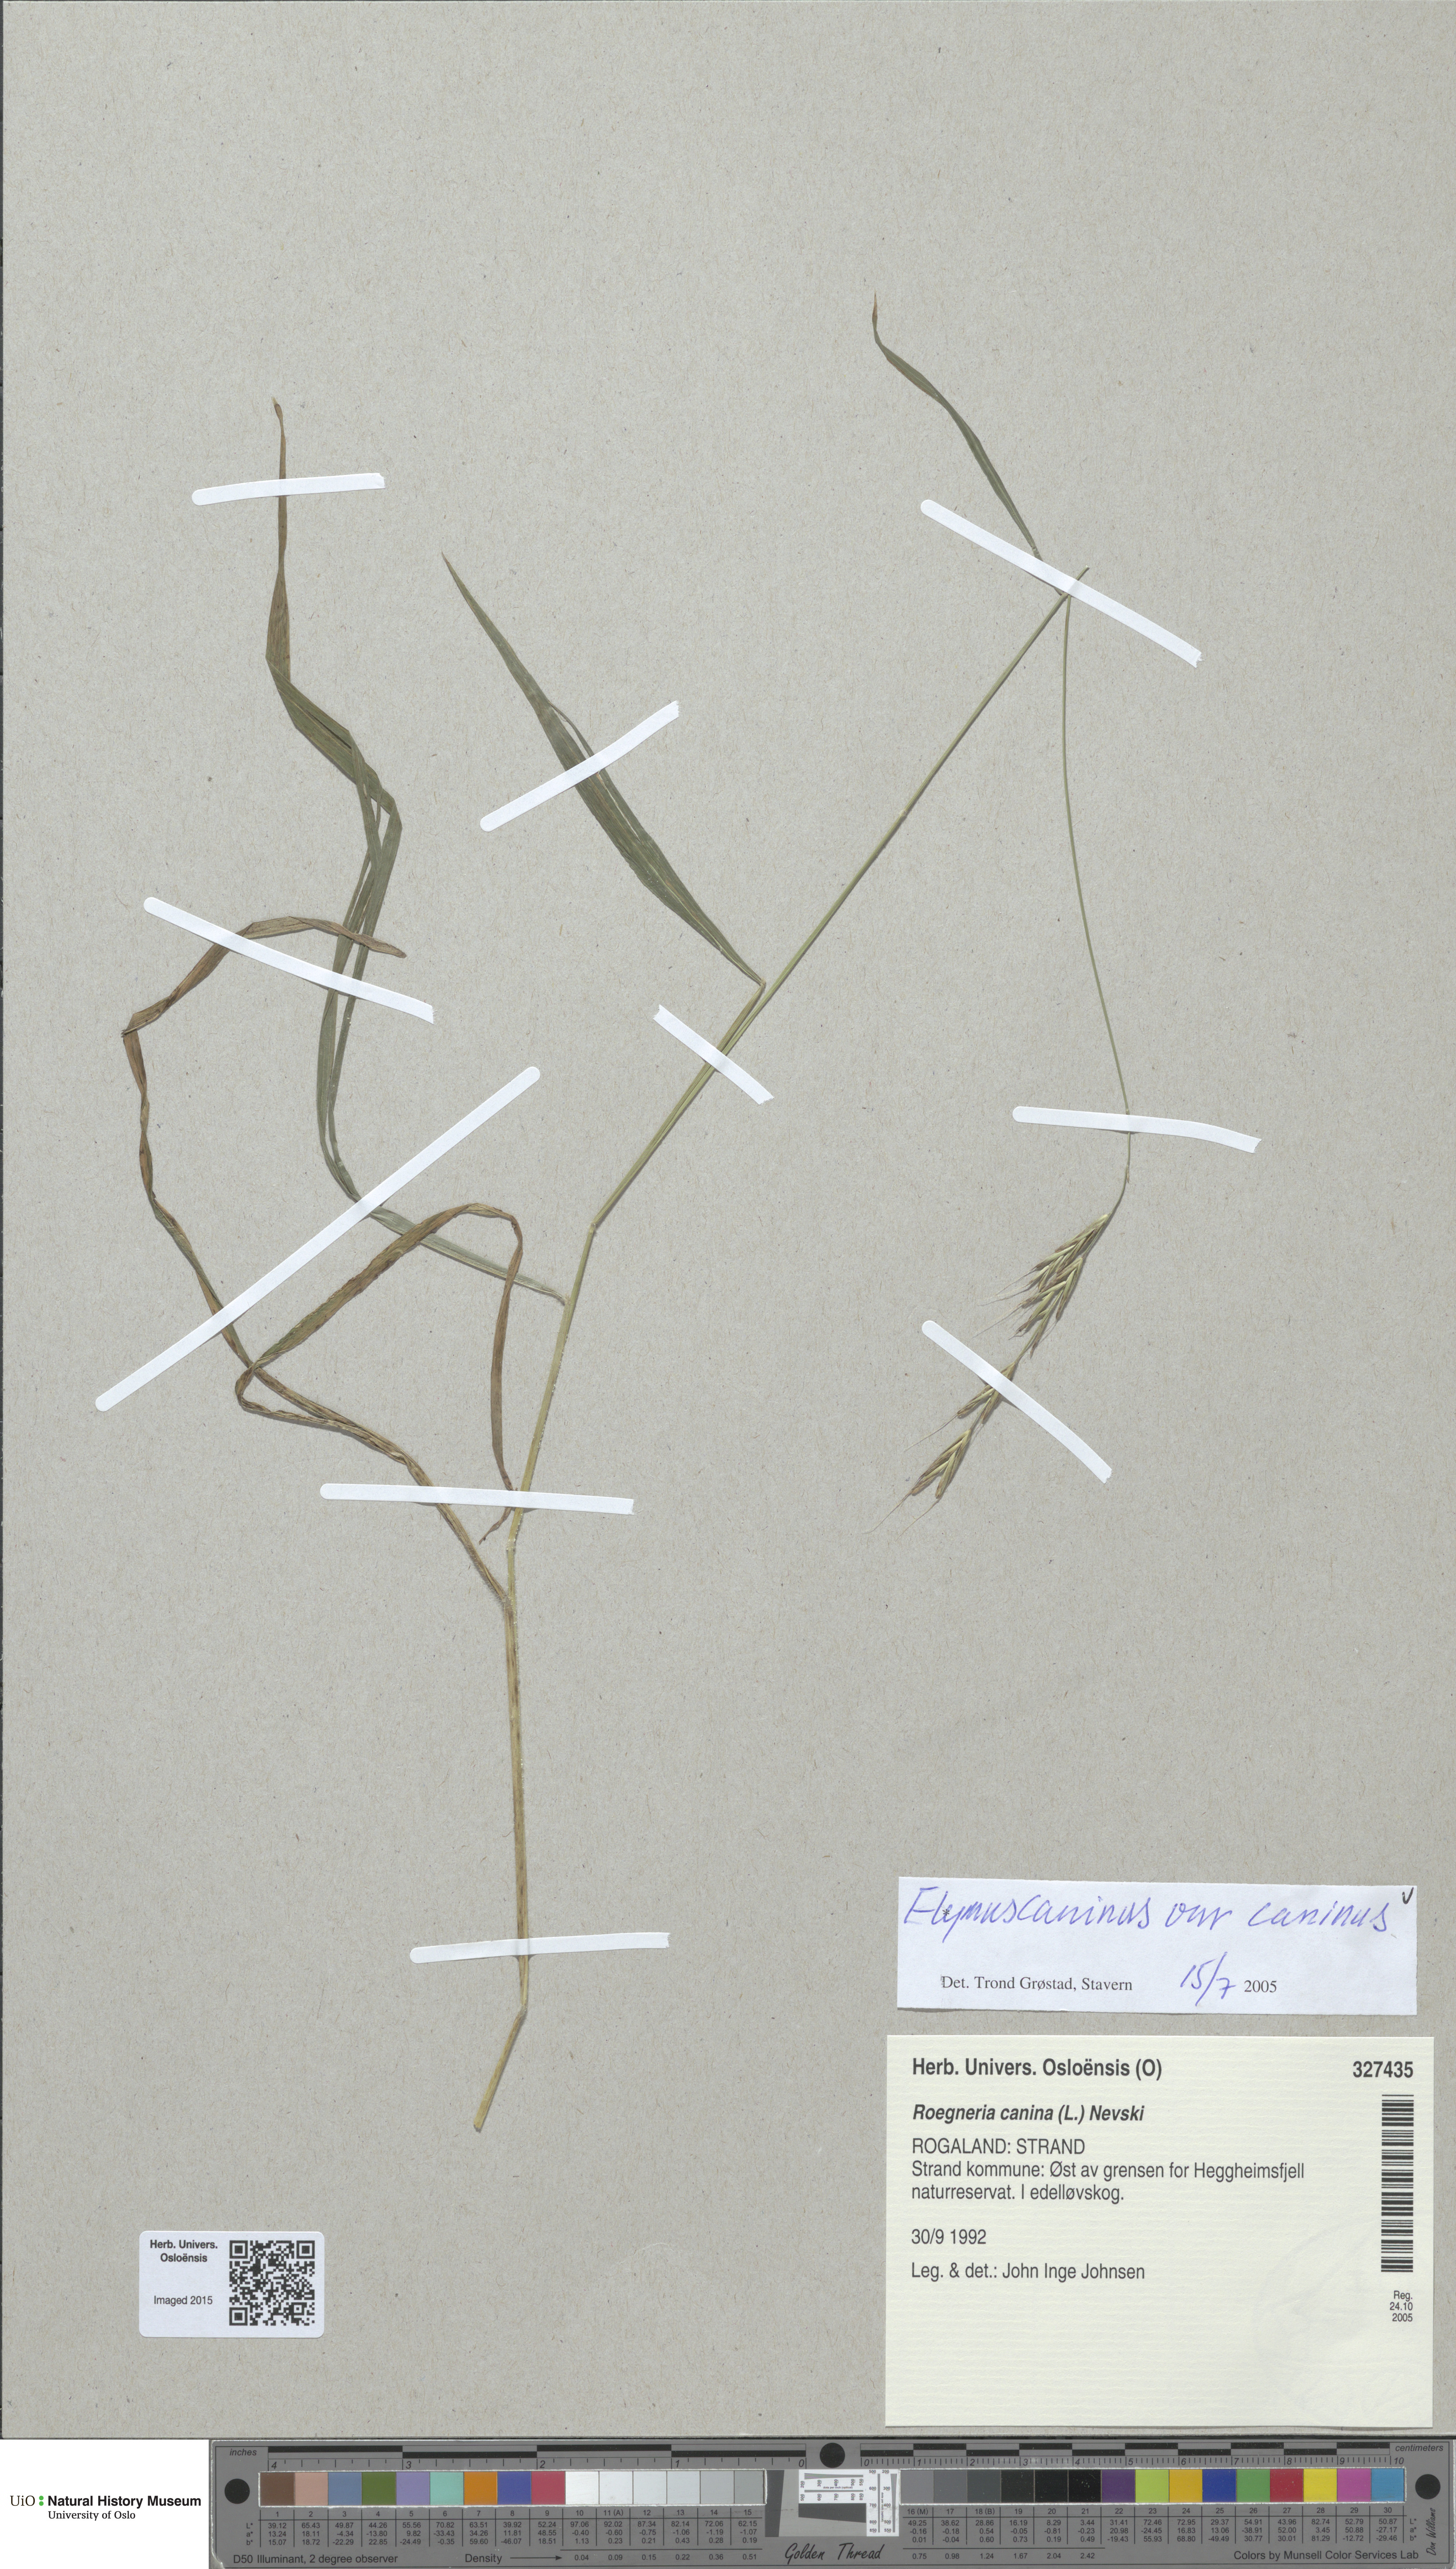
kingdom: Plantae
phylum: Tracheophyta
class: Liliopsida
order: Poales
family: Poaceae
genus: Elymus
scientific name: Elymus caninus
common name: Bearded couch
